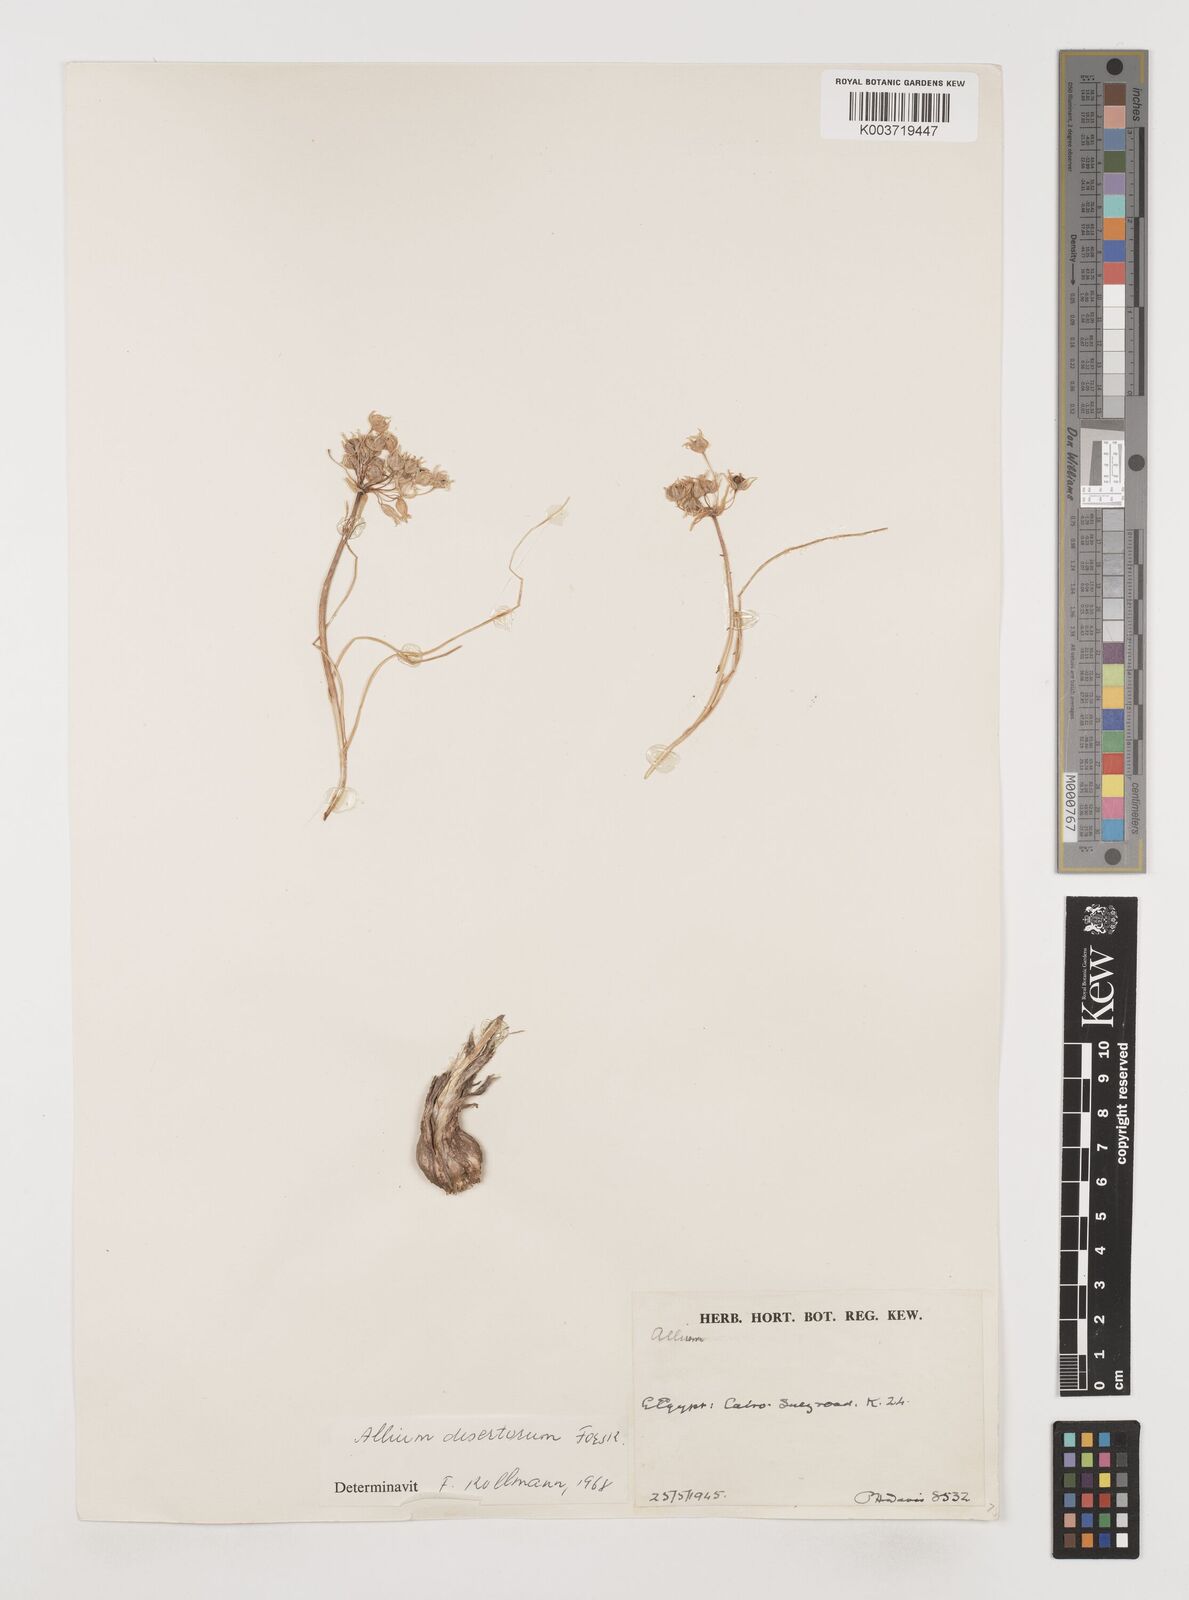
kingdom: Plantae
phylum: Tracheophyta
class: Liliopsida
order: Asparagales
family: Amaryllidaceae
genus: Allium
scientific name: Allium desertorum
